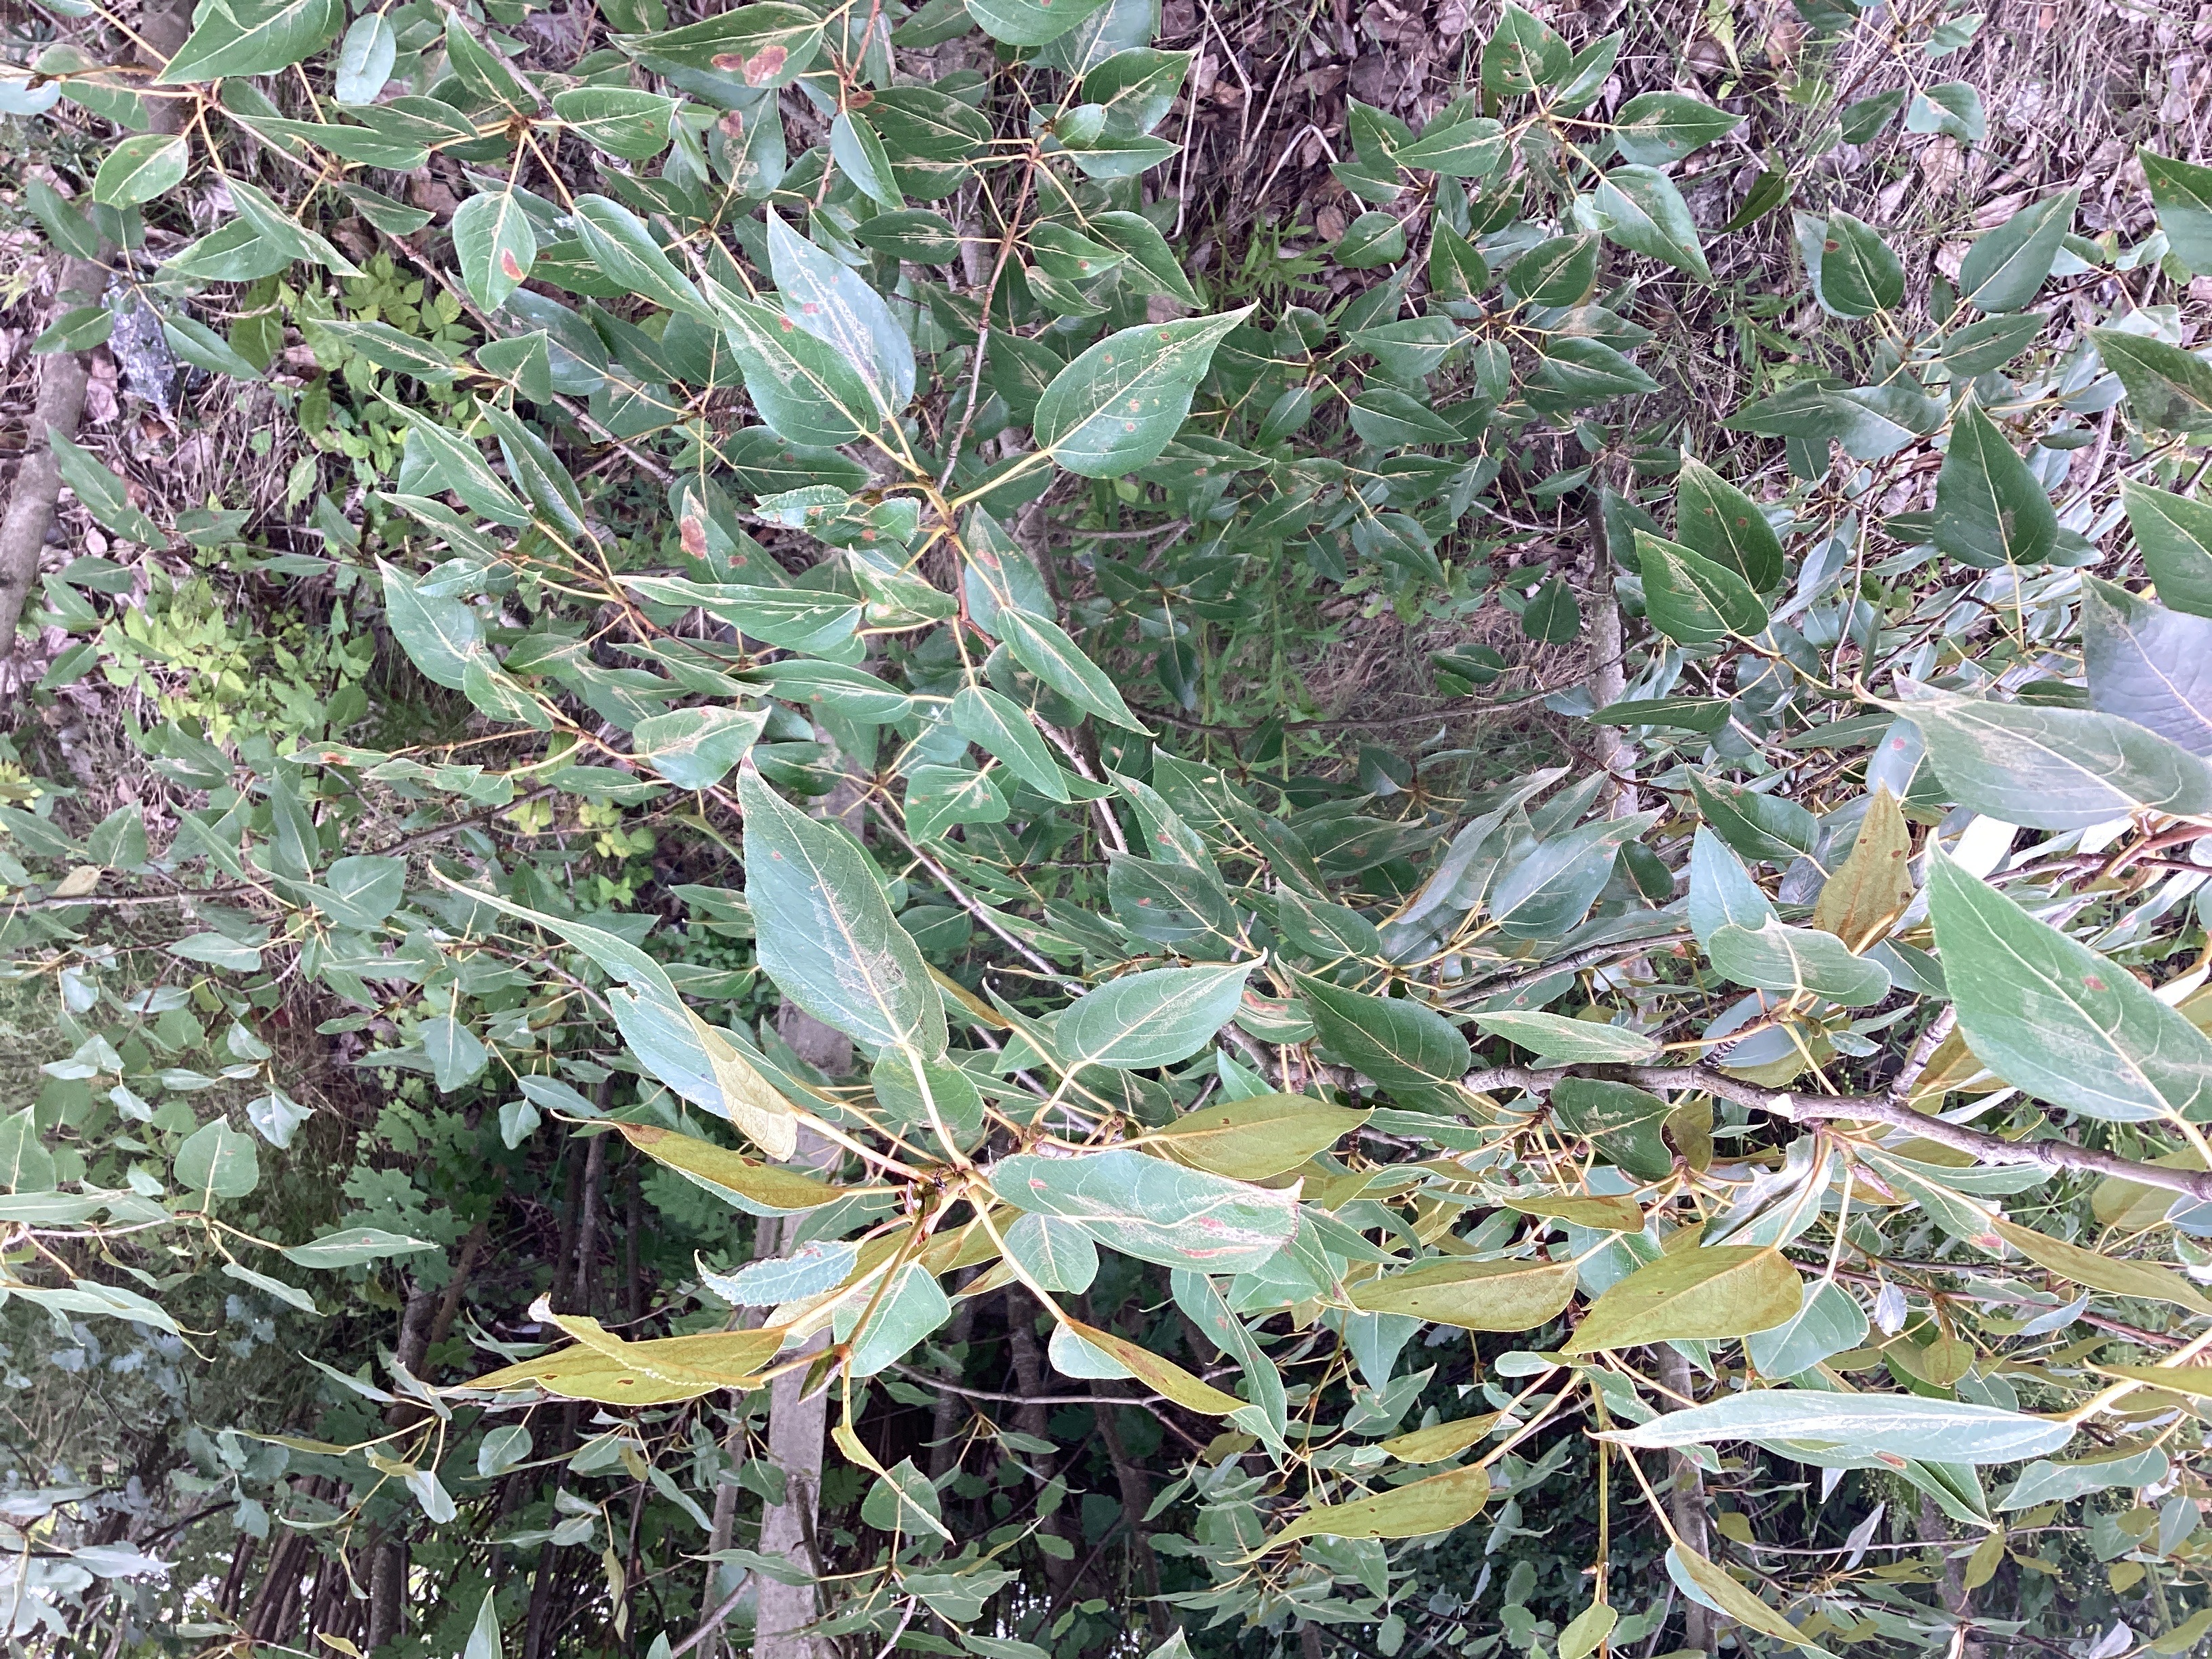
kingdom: Plantae
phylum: Tracheophyta
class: Magnoliopsida
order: Malpighiales
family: Salicaceae
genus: Populus
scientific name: Populus balsamifera
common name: balsampoppel
